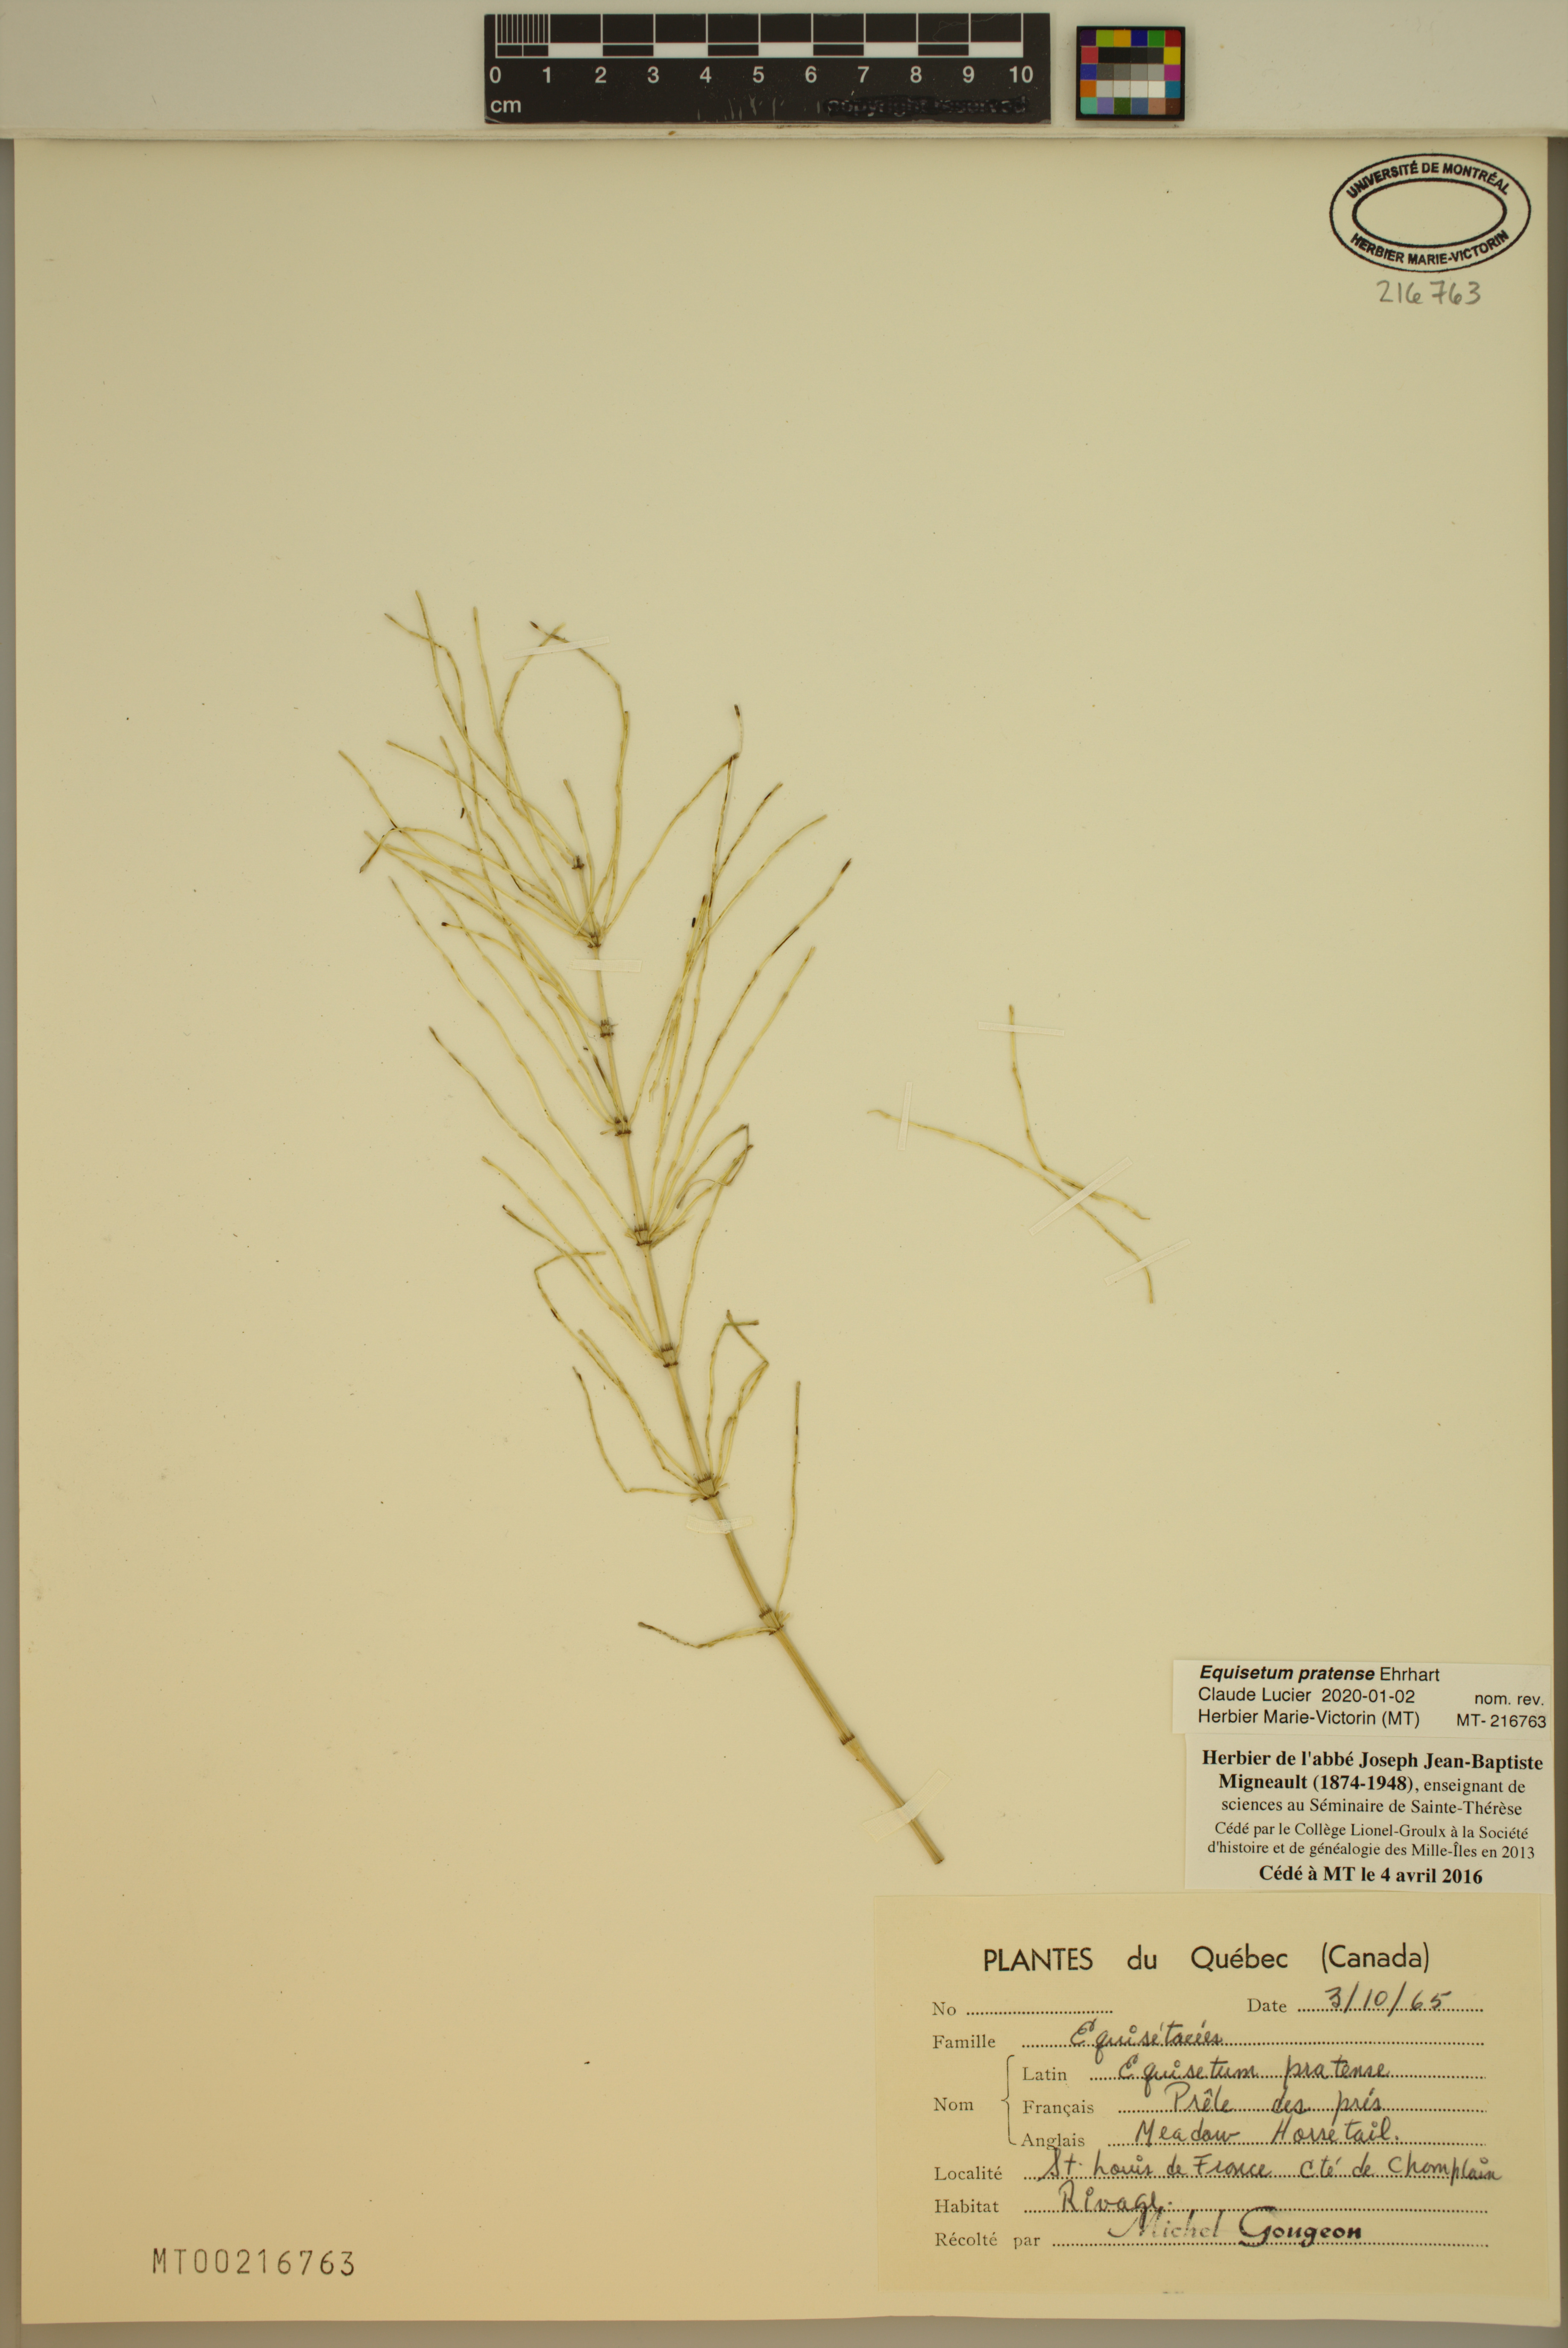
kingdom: Plantae
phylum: Tracheophyta
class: Polypodiopsida
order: Equisetales
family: Equisetaceae
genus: Equisetum
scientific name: Equisetum pratense
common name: Meadow horsetail
